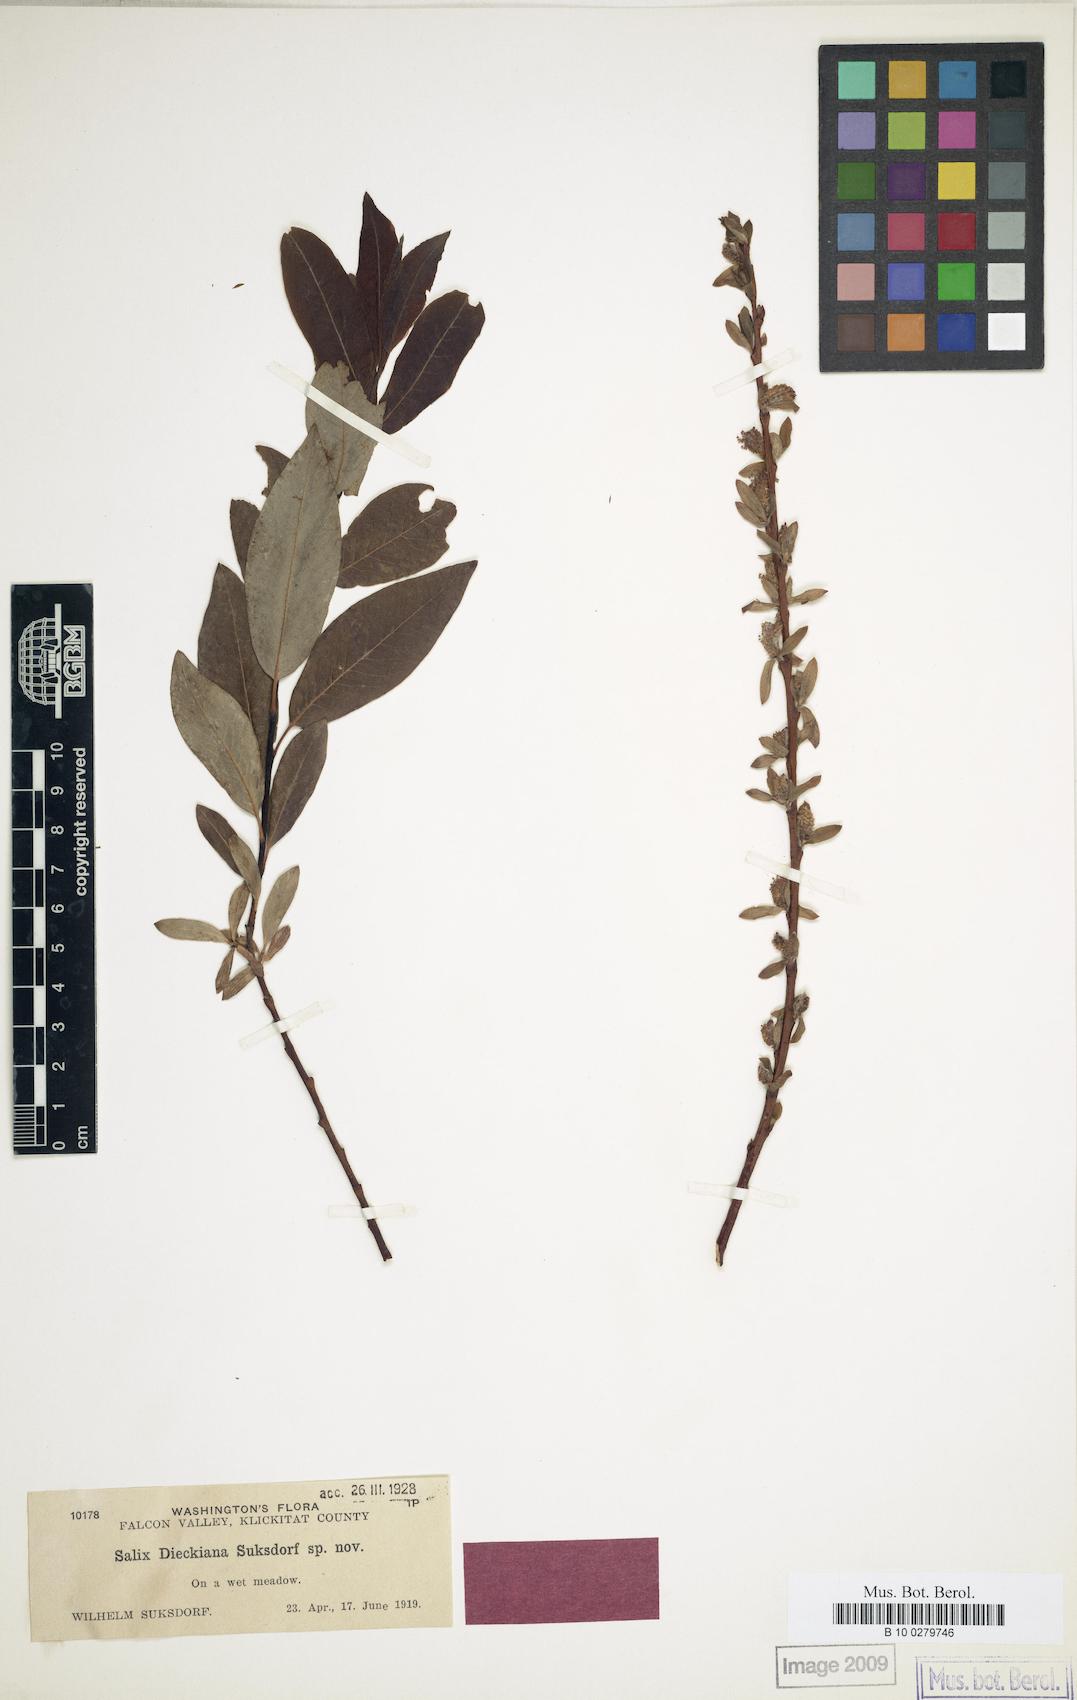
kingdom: Plantae
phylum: Tracheophyta
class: Magnoliopsida
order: Malpighiales
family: Salicaceae
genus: Salix
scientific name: Salix dieckiana
